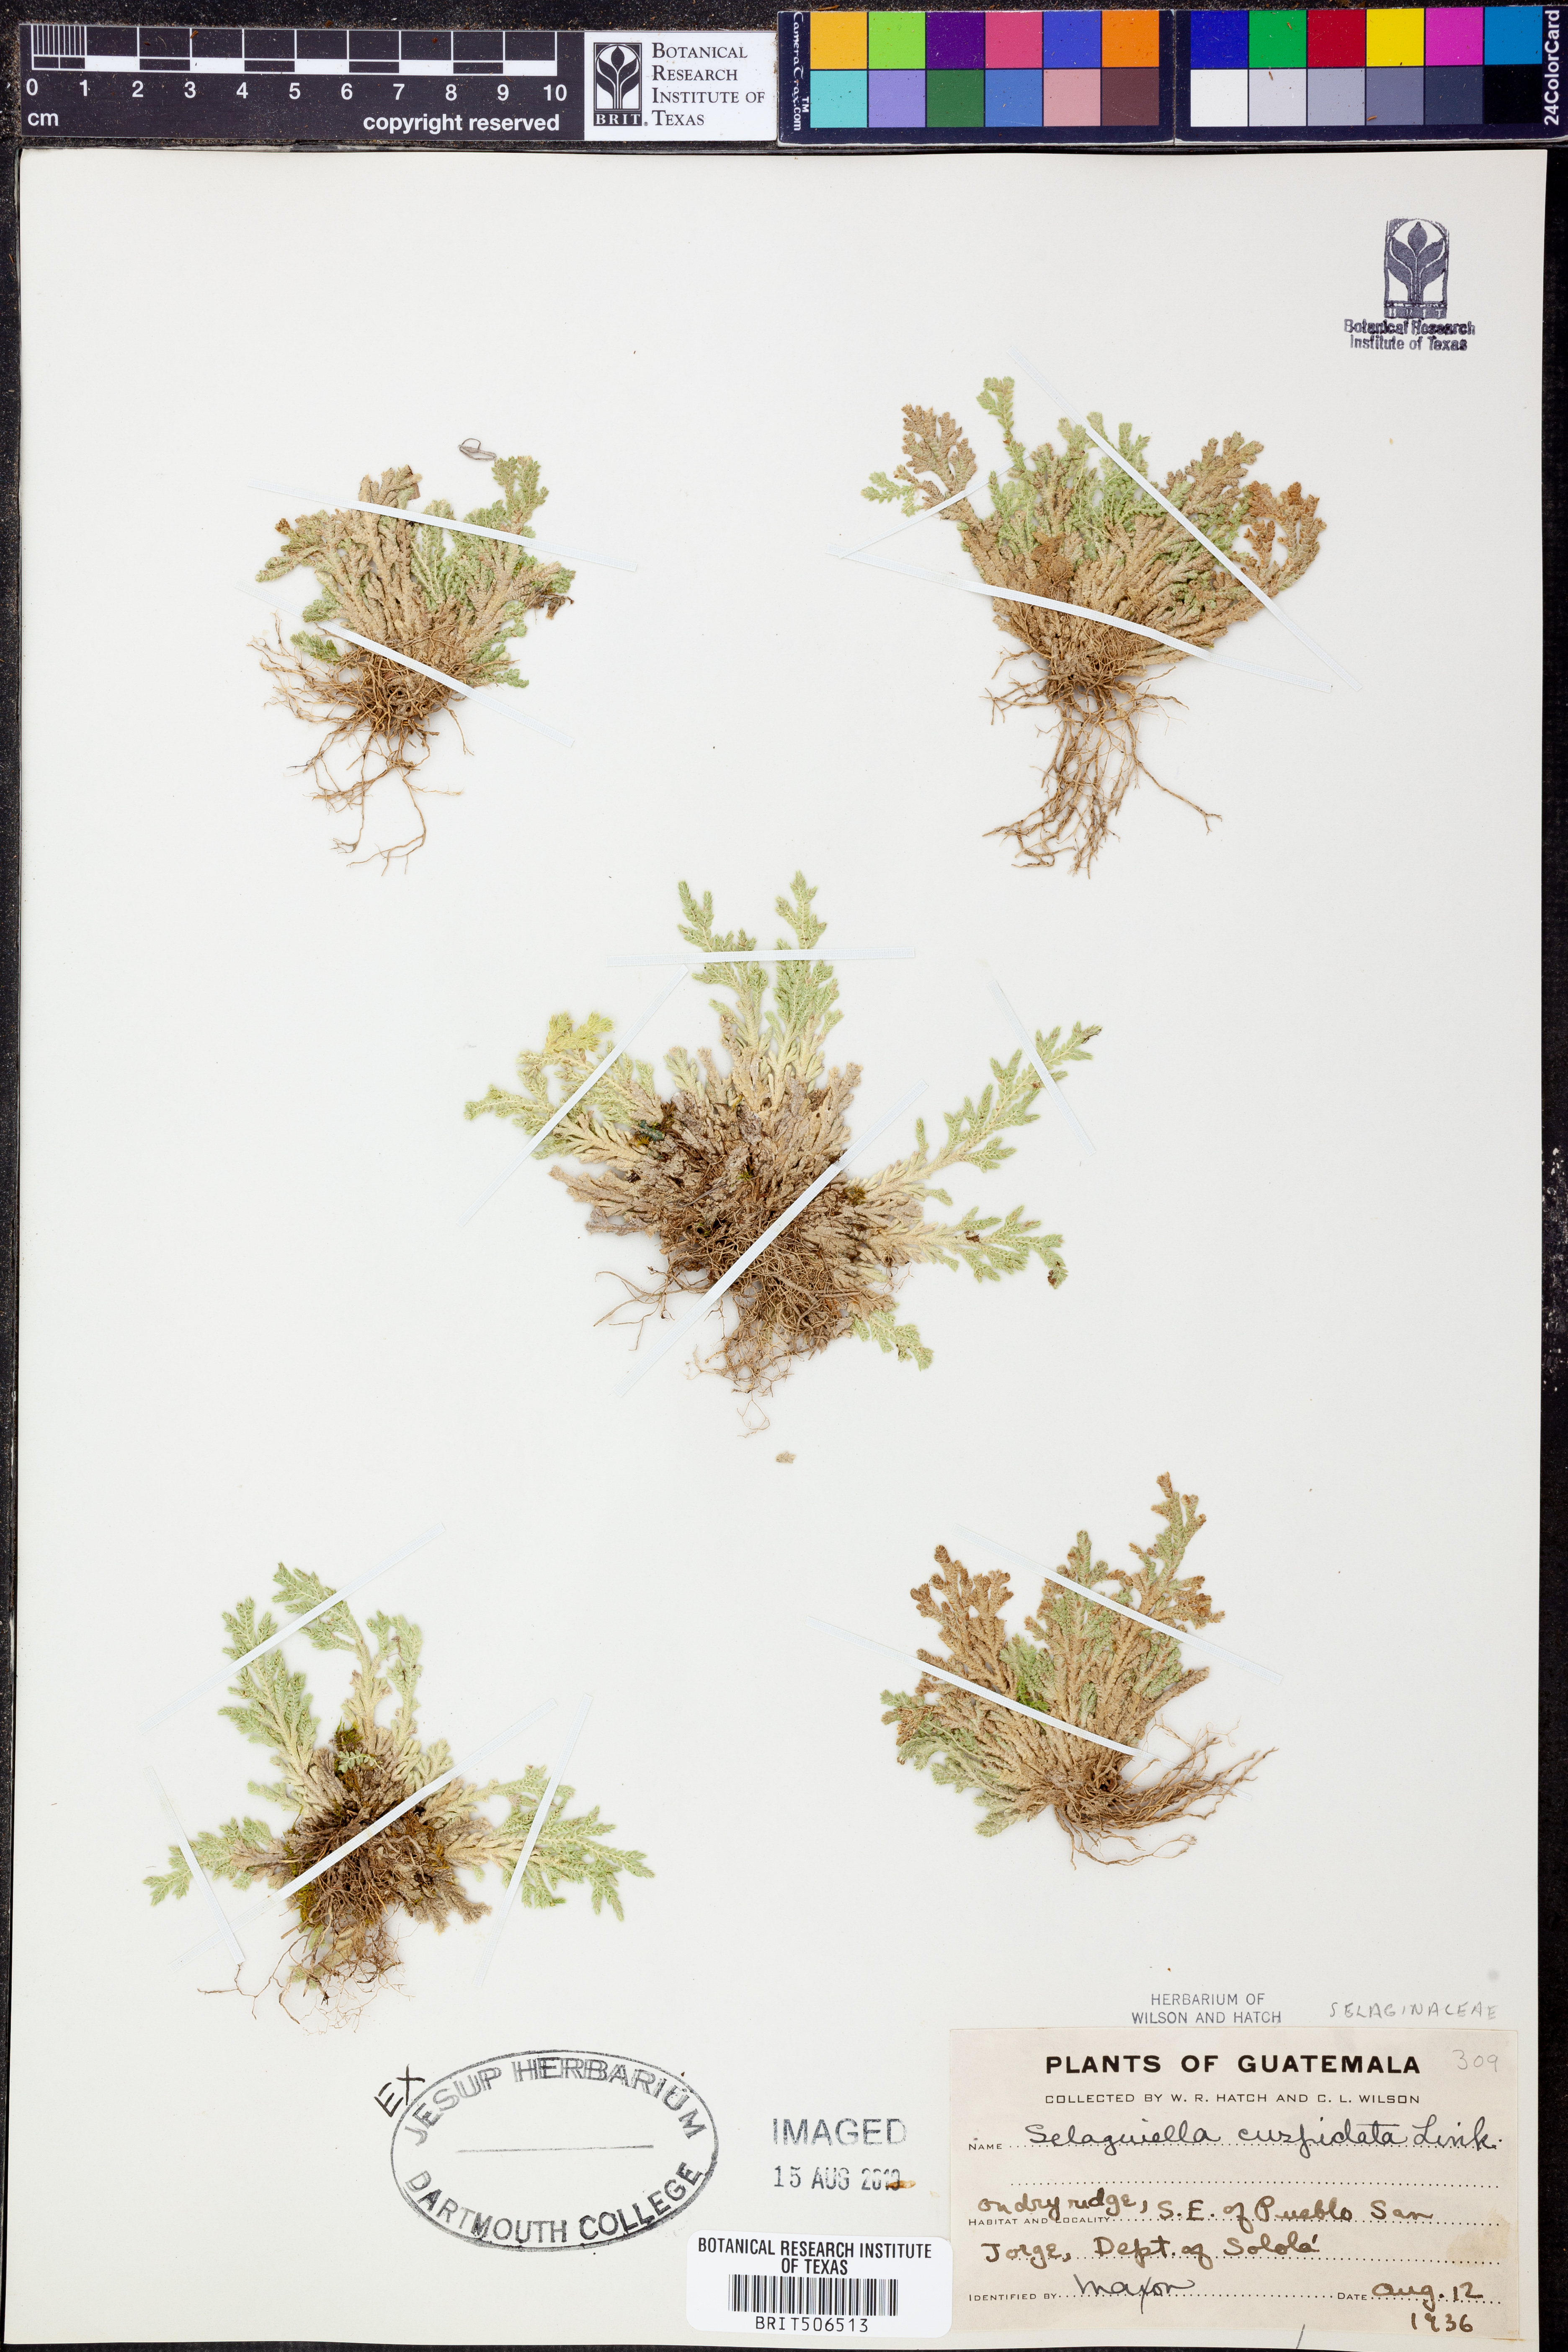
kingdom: Plantae
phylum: Tracheophyta
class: Lycopodiopsida
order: Selaginellales
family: Selaginellaceae
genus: Selaginella
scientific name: Selaginella pallescens
